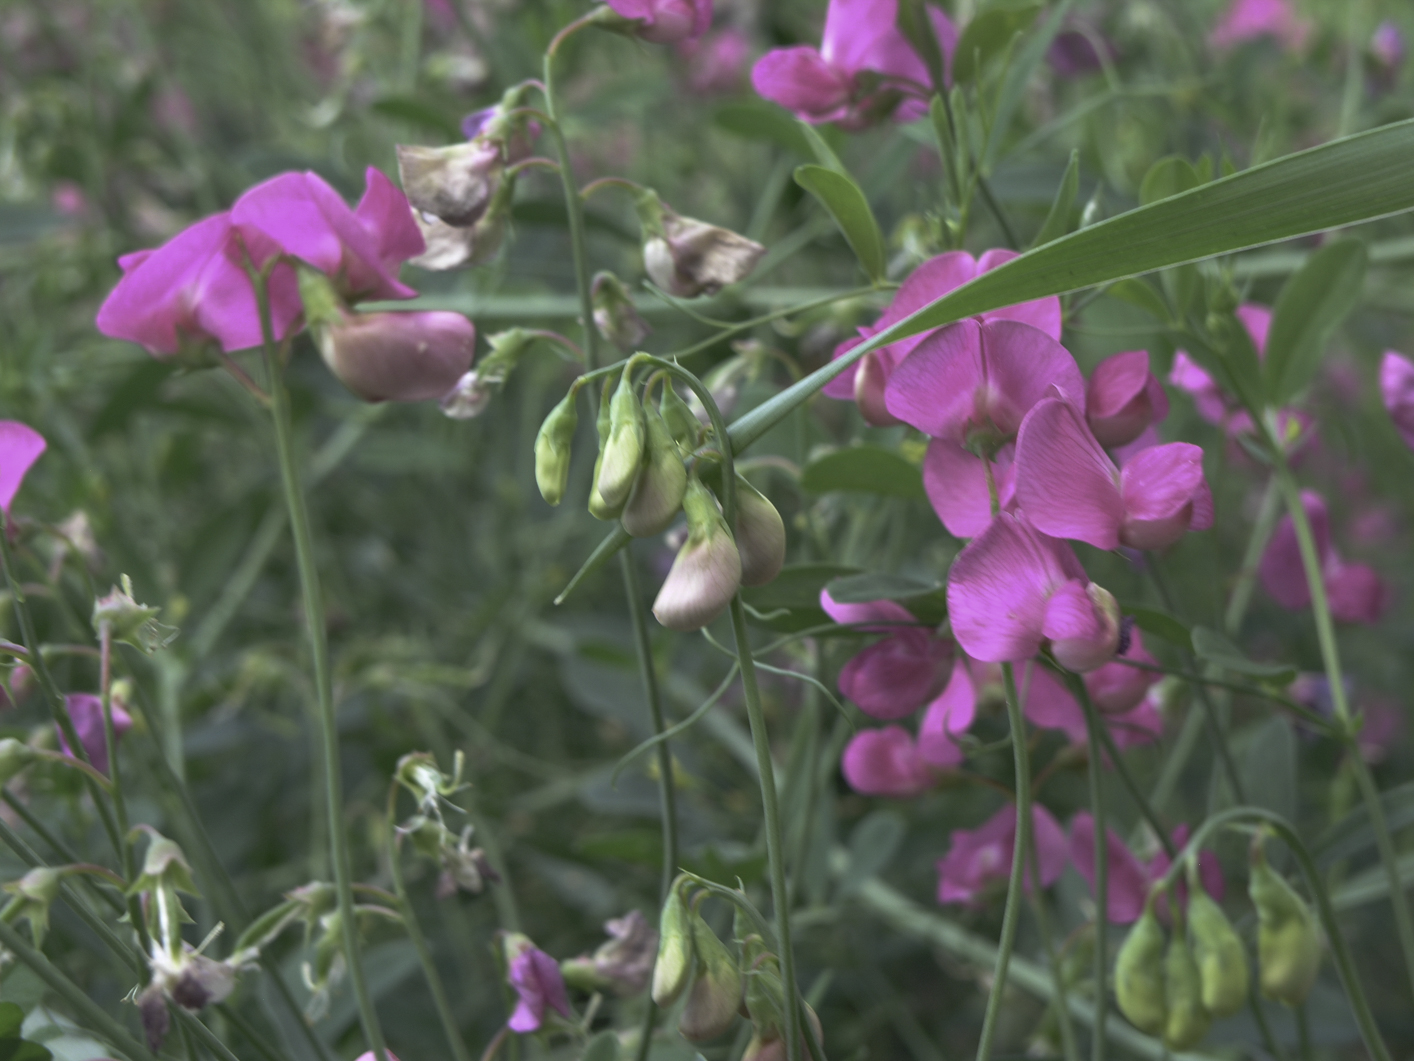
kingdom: Plantae
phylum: Tracheophyta
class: Magnoliopsida
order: Fabales
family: Fabaceae
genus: Lathyrus
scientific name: Lathyrus tuberosus
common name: Tuberous pea
